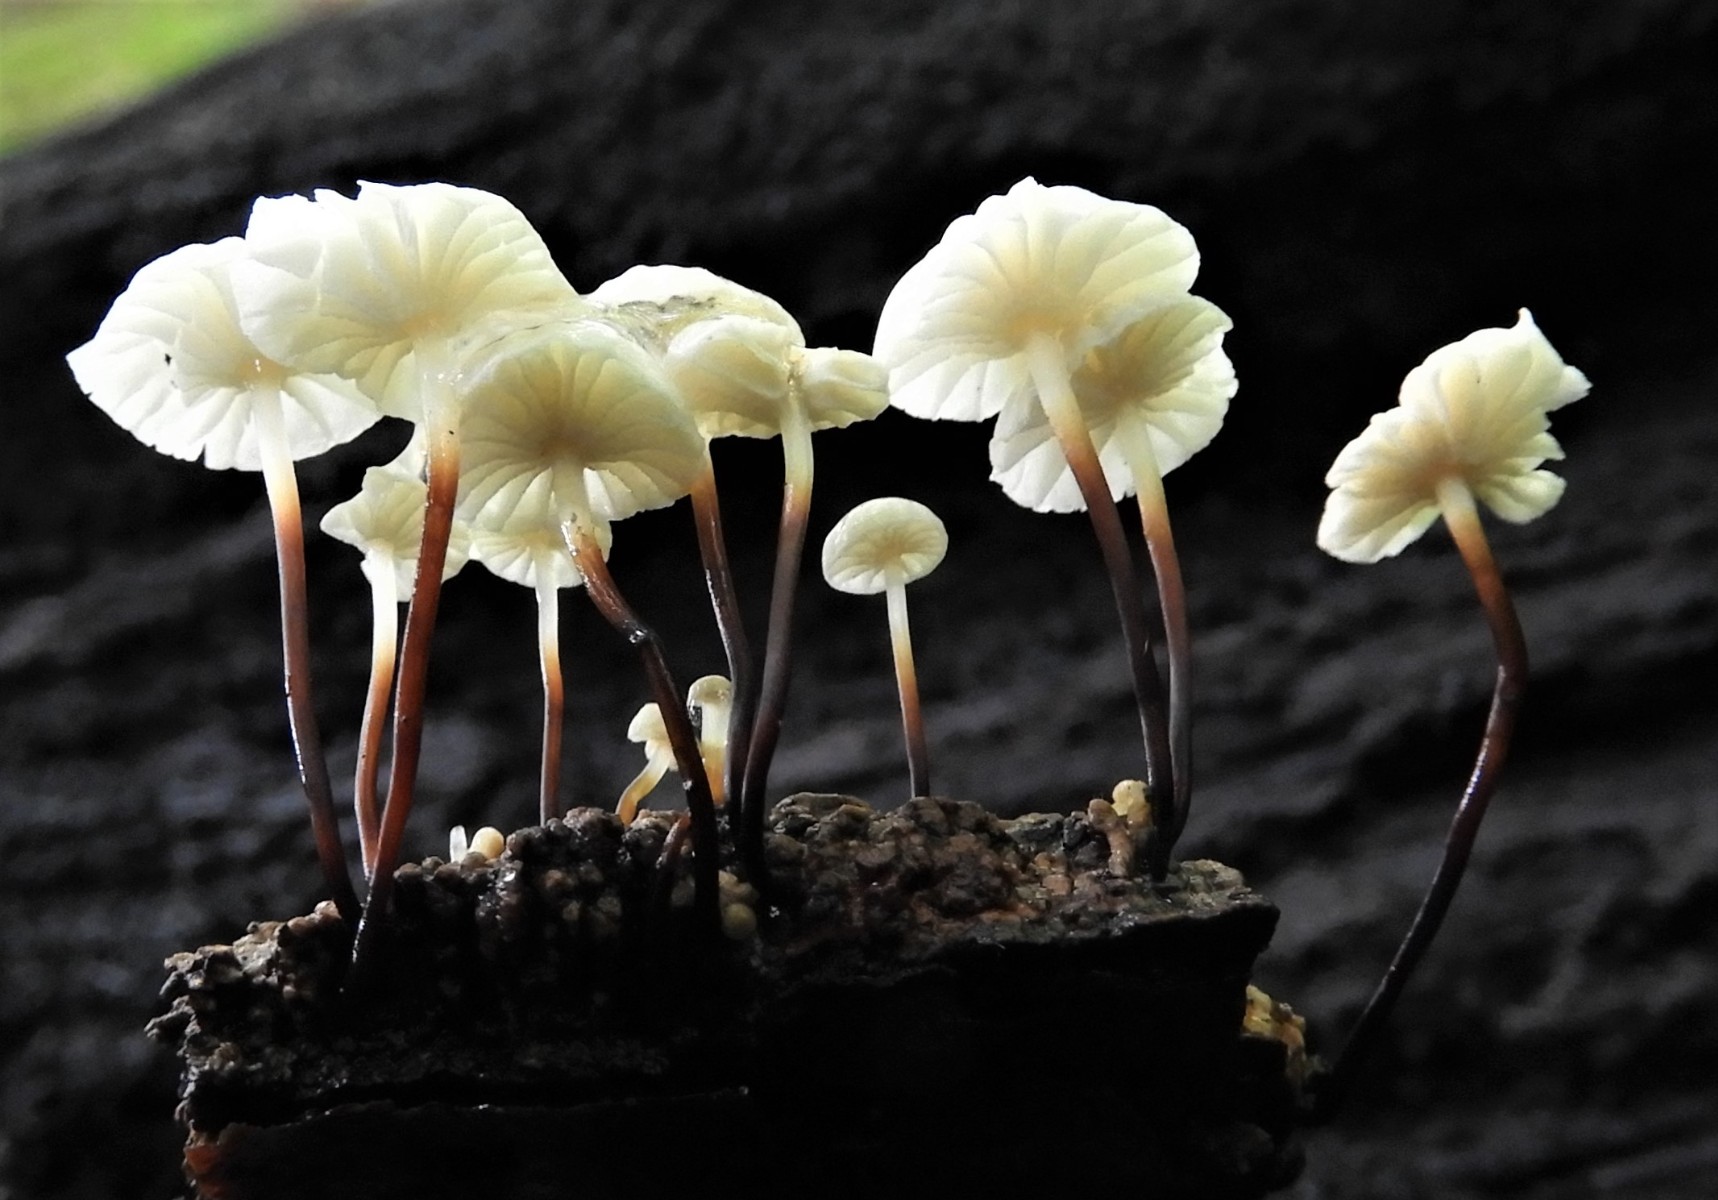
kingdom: Fungi
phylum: Basidiomycota
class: Agaricomycetes
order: Agaricales
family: Marasmiaceae
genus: Marasmius
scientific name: Marasmius rotula
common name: hjul-bruskhat
